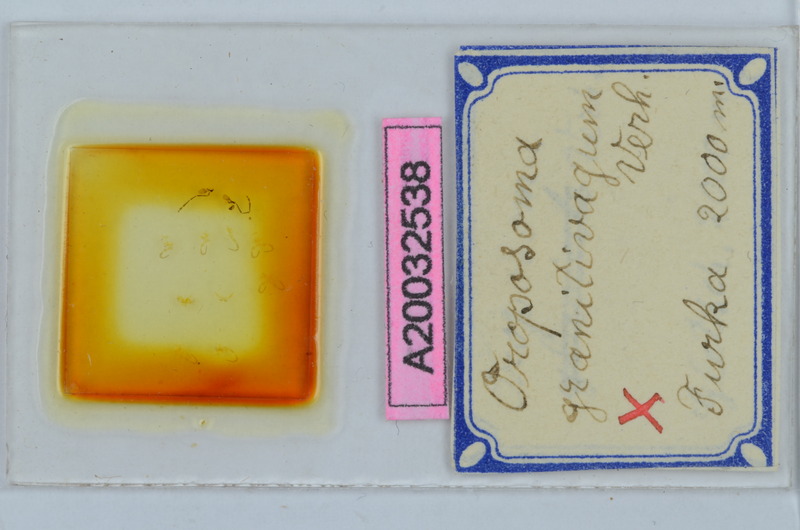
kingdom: Animalia
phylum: Arthropoda
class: Diplopoda
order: Chordeumatida
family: Craspedosomatidae
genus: Oroposoma
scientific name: Oroposoma granitivagum
